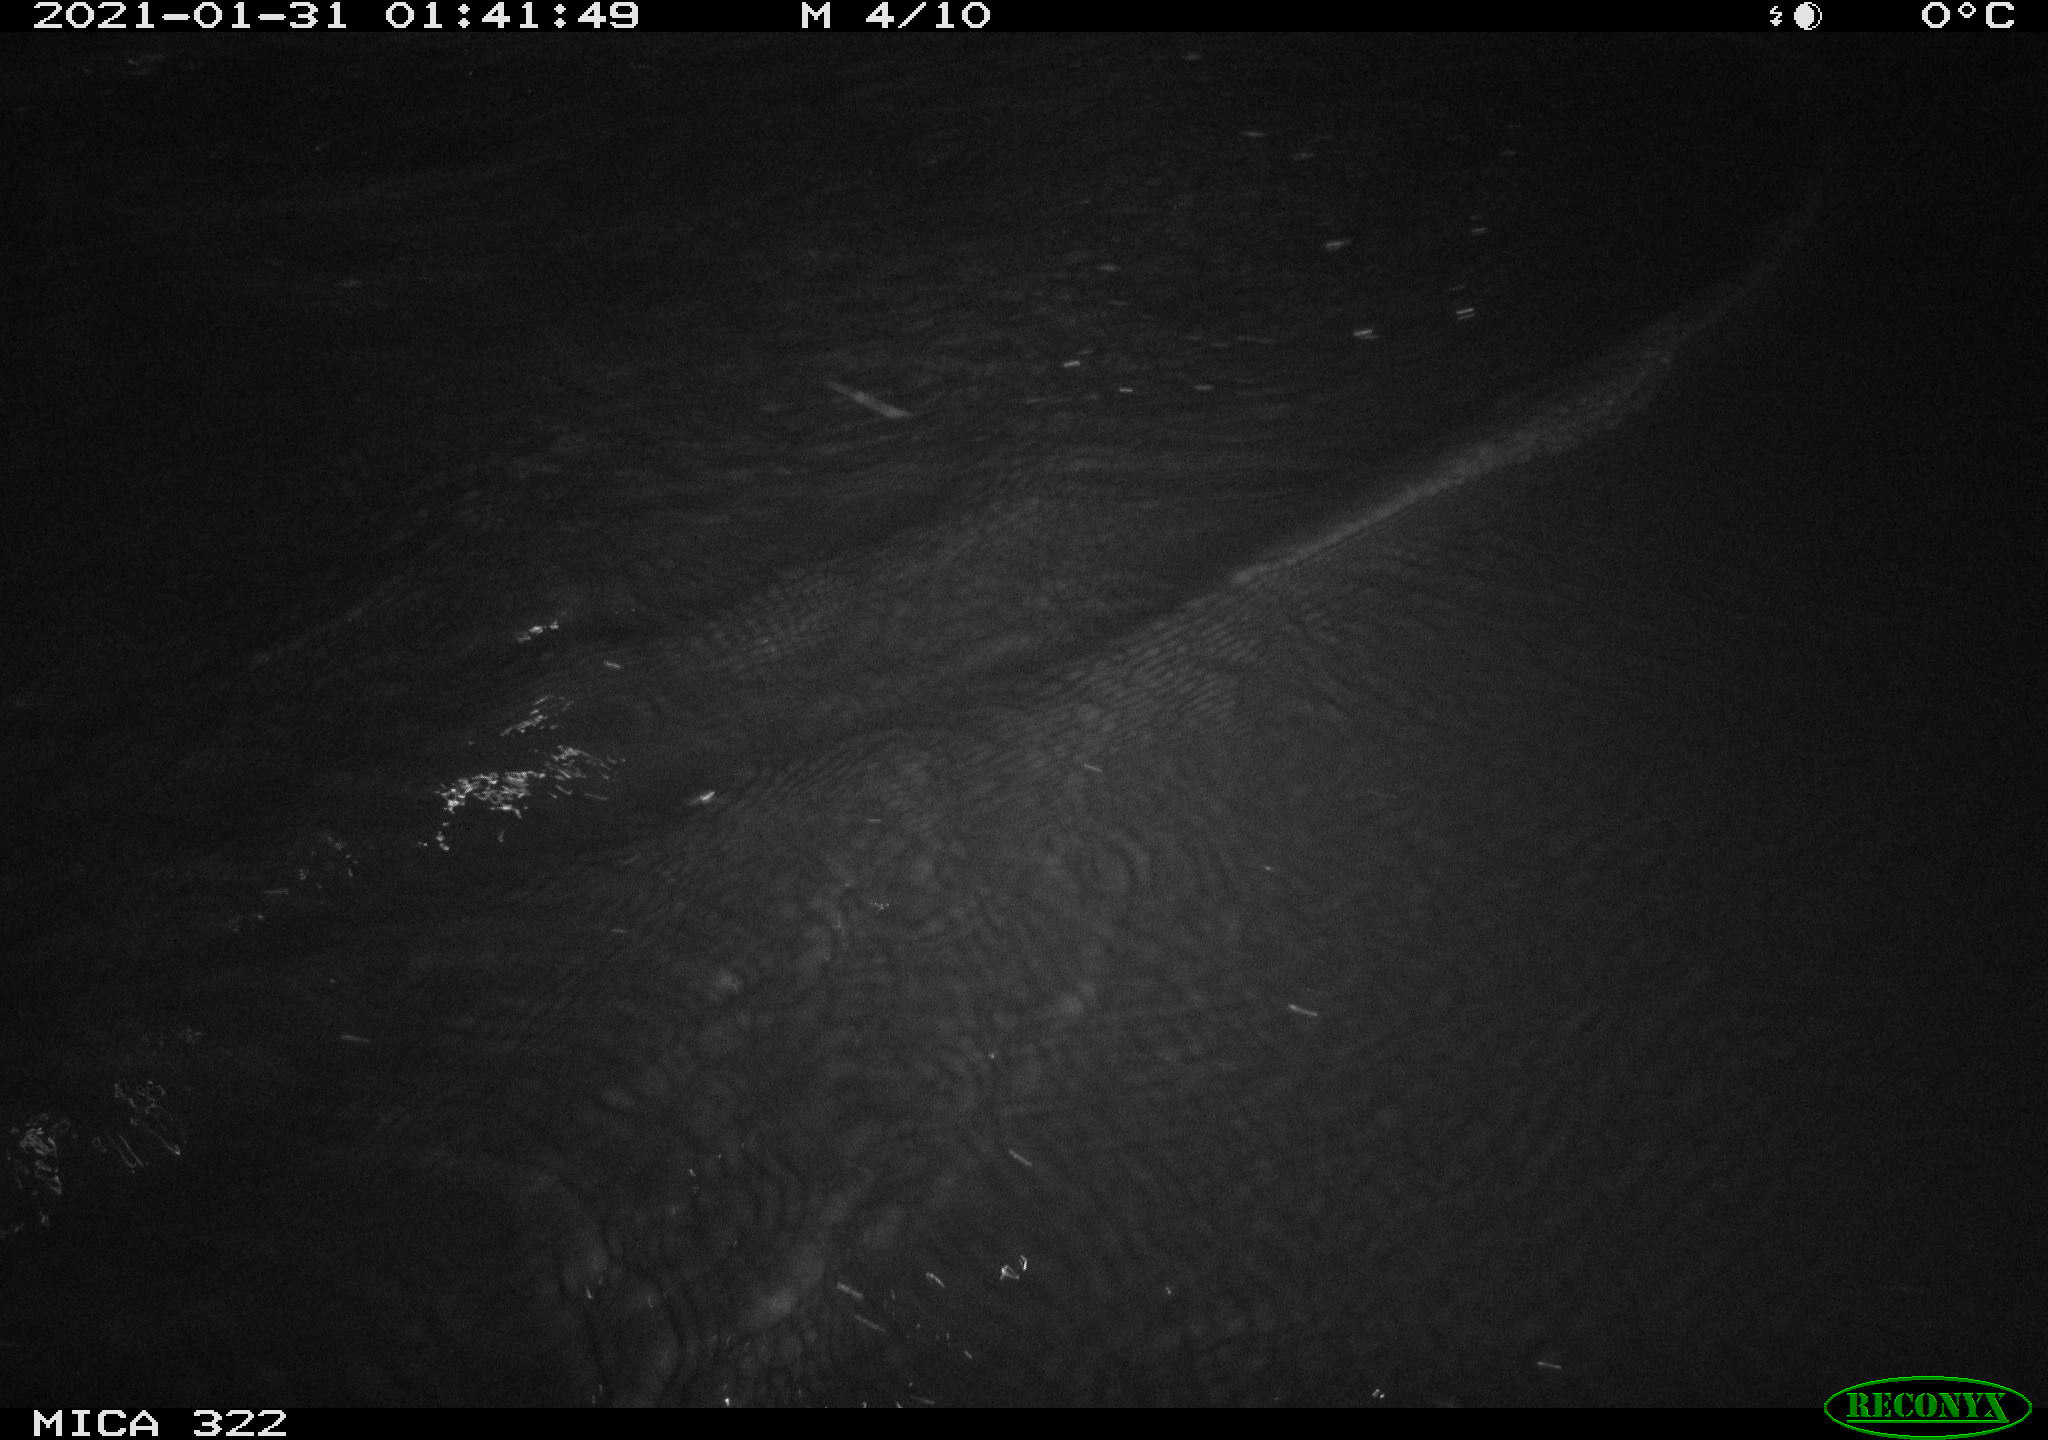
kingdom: Animalia
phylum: Chordata
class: Aves
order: Anseriformes
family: Anatidae
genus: Anas
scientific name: Anas platyrhynchos
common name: Mallard
